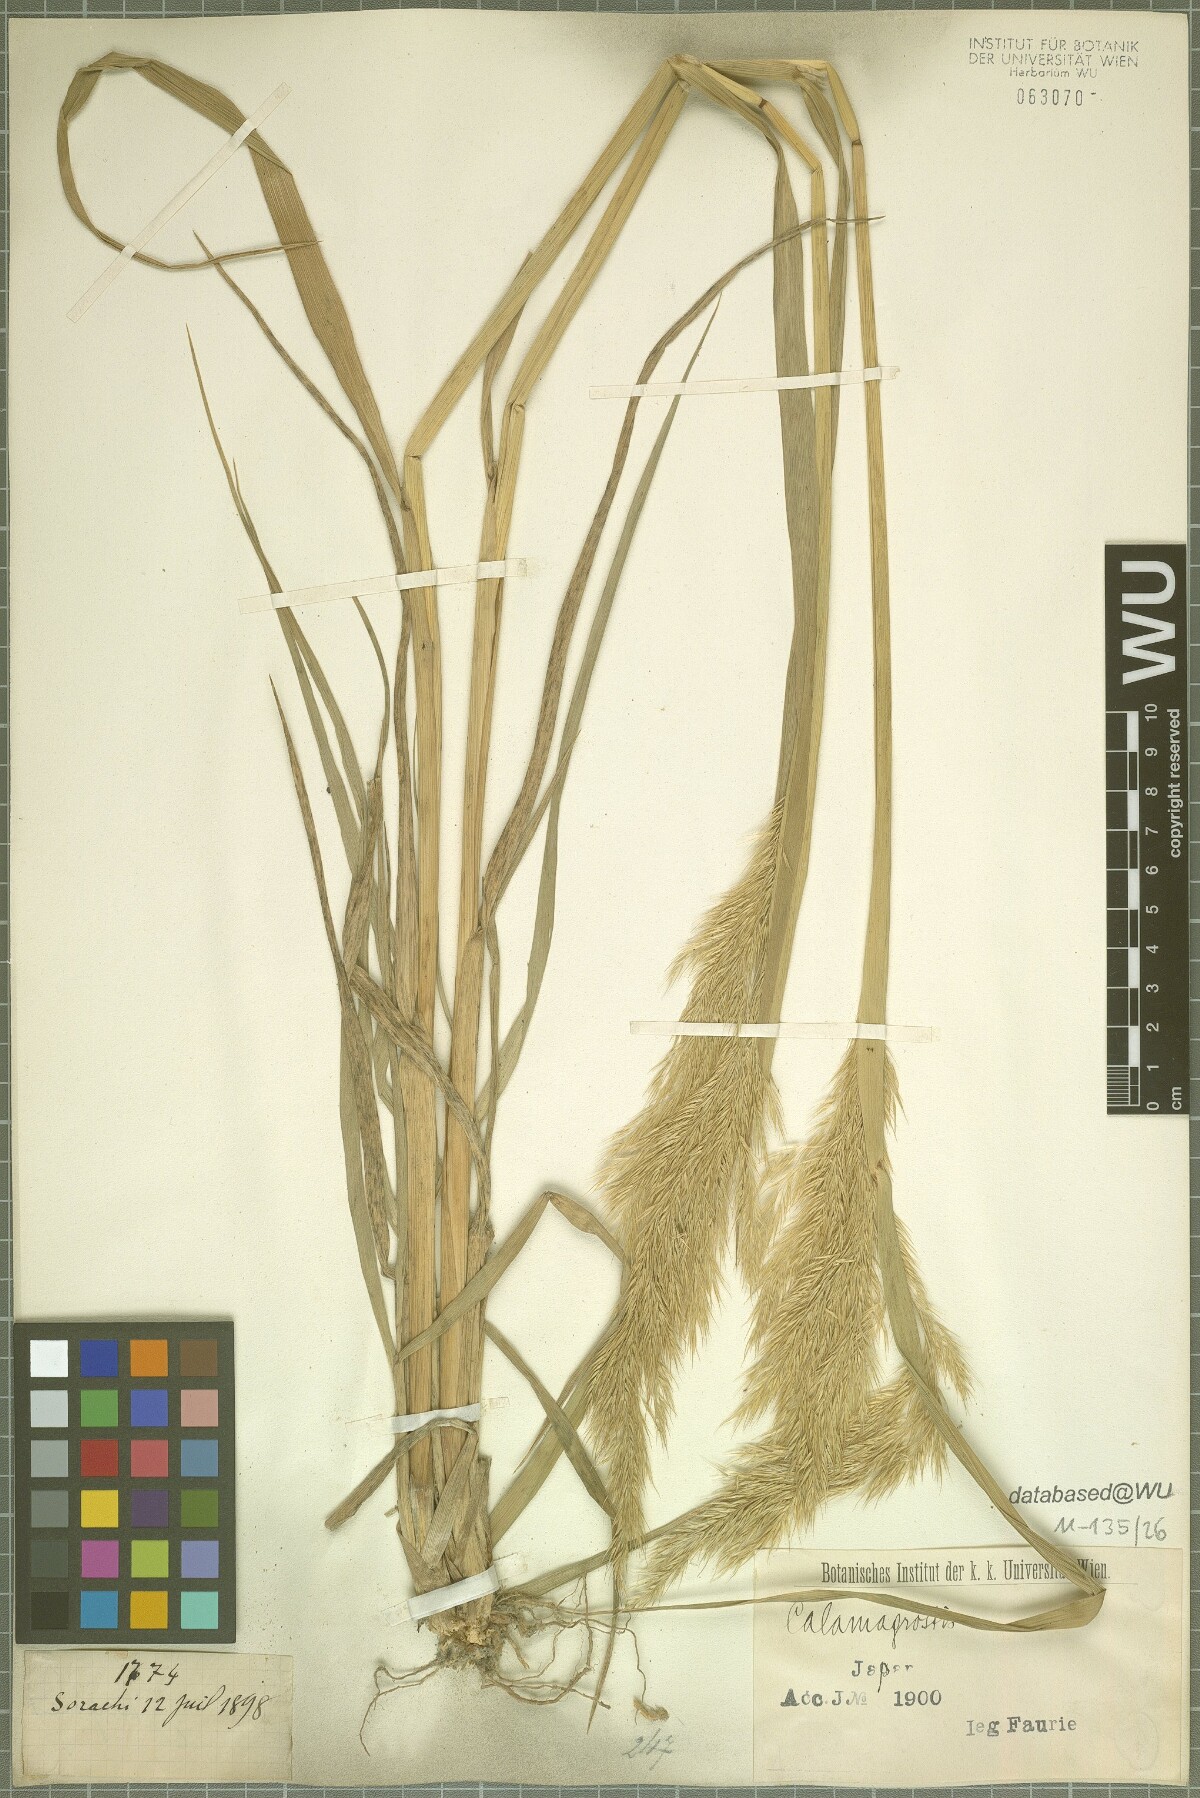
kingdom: Plantae
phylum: Tracheophyta
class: Liliopsida
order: Poales
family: Poaceae
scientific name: Poaceae
